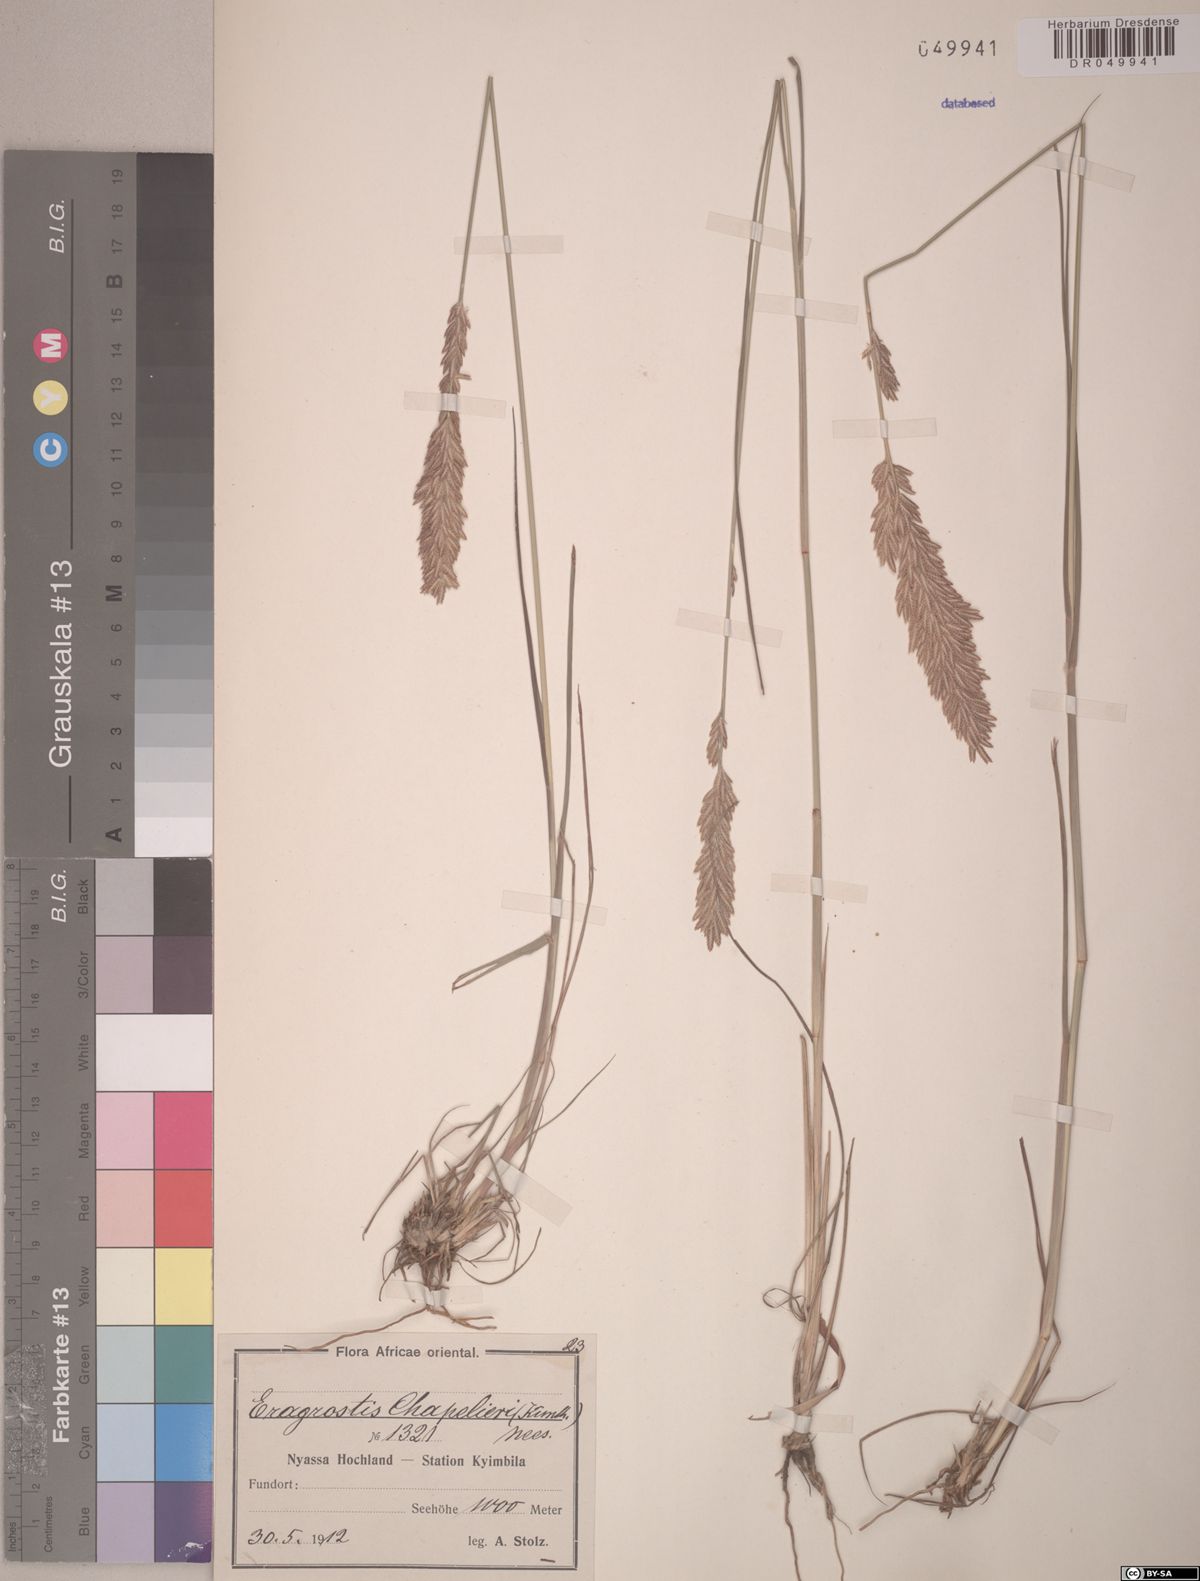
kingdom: Plantae
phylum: Tracheophyta
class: Liliopsida
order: Poales
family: Poaceae
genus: Eragrostis
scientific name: Eragrostis chapelieri
